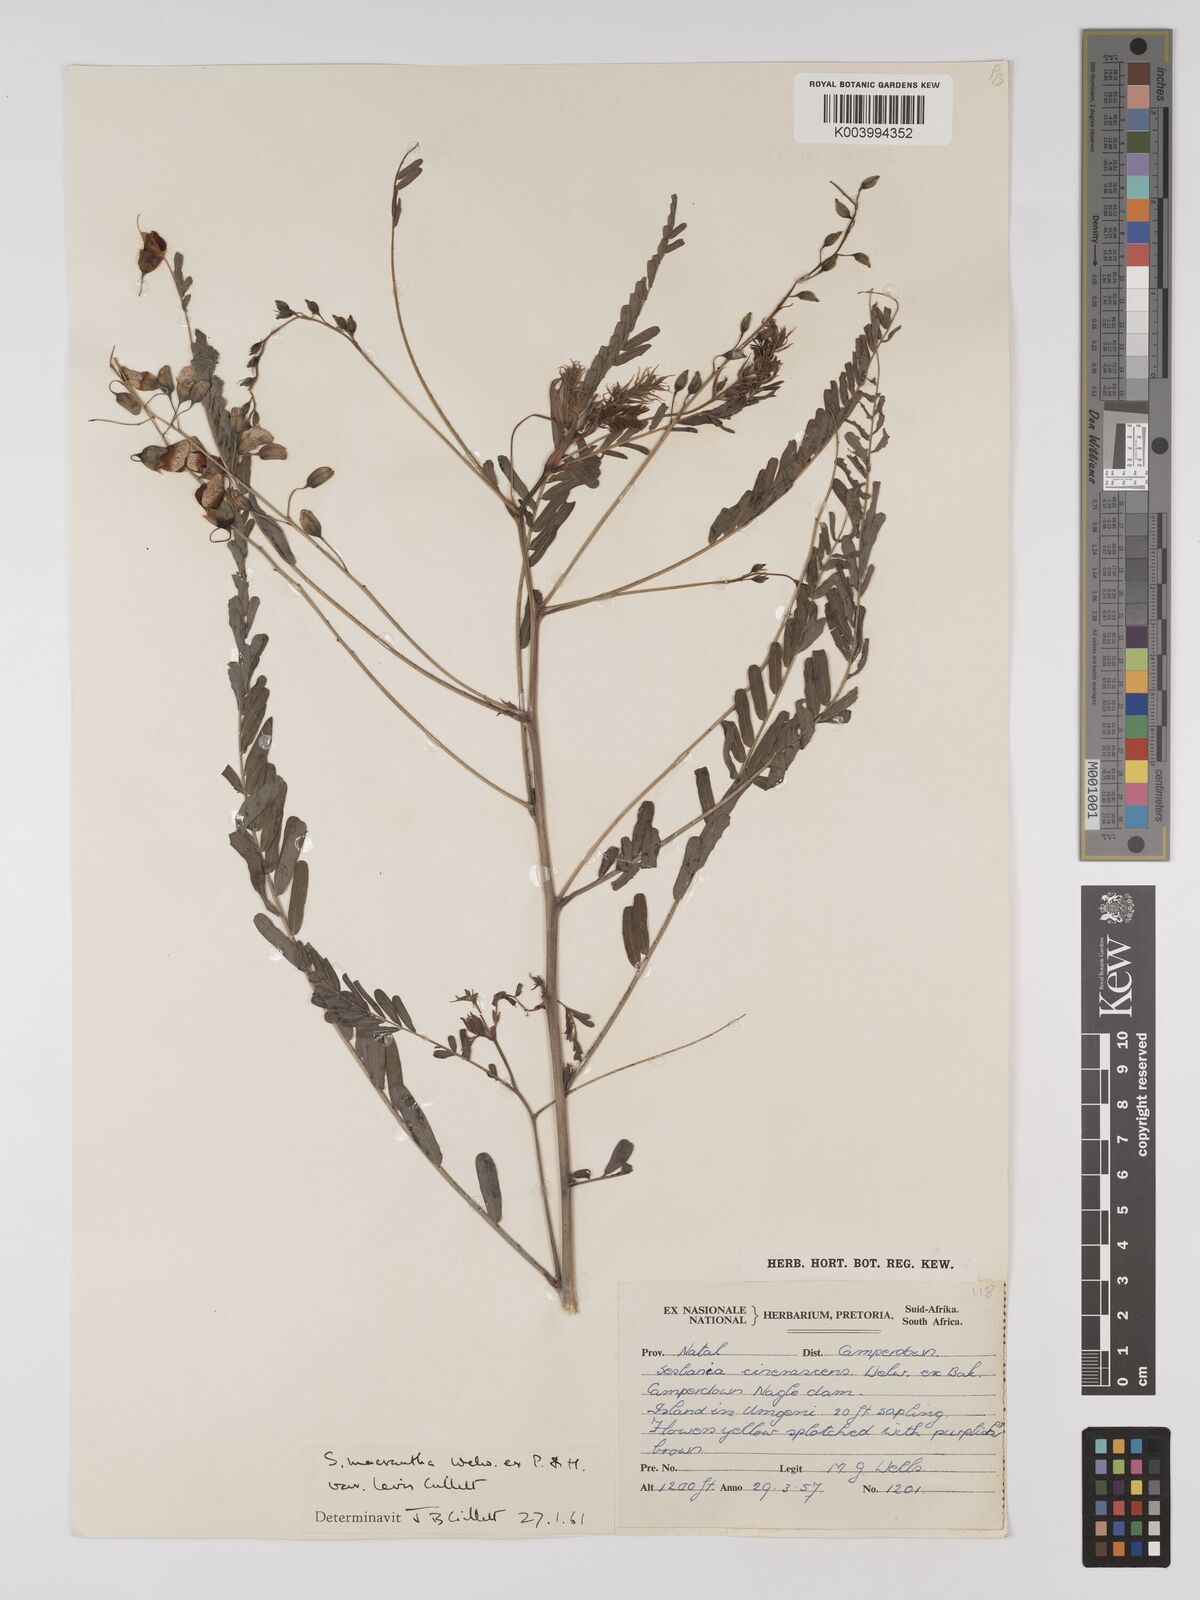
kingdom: Plantae
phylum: Tracheophyta
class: Magnoliopsida
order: Fabales
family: Fabaceae
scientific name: Fabaceae
